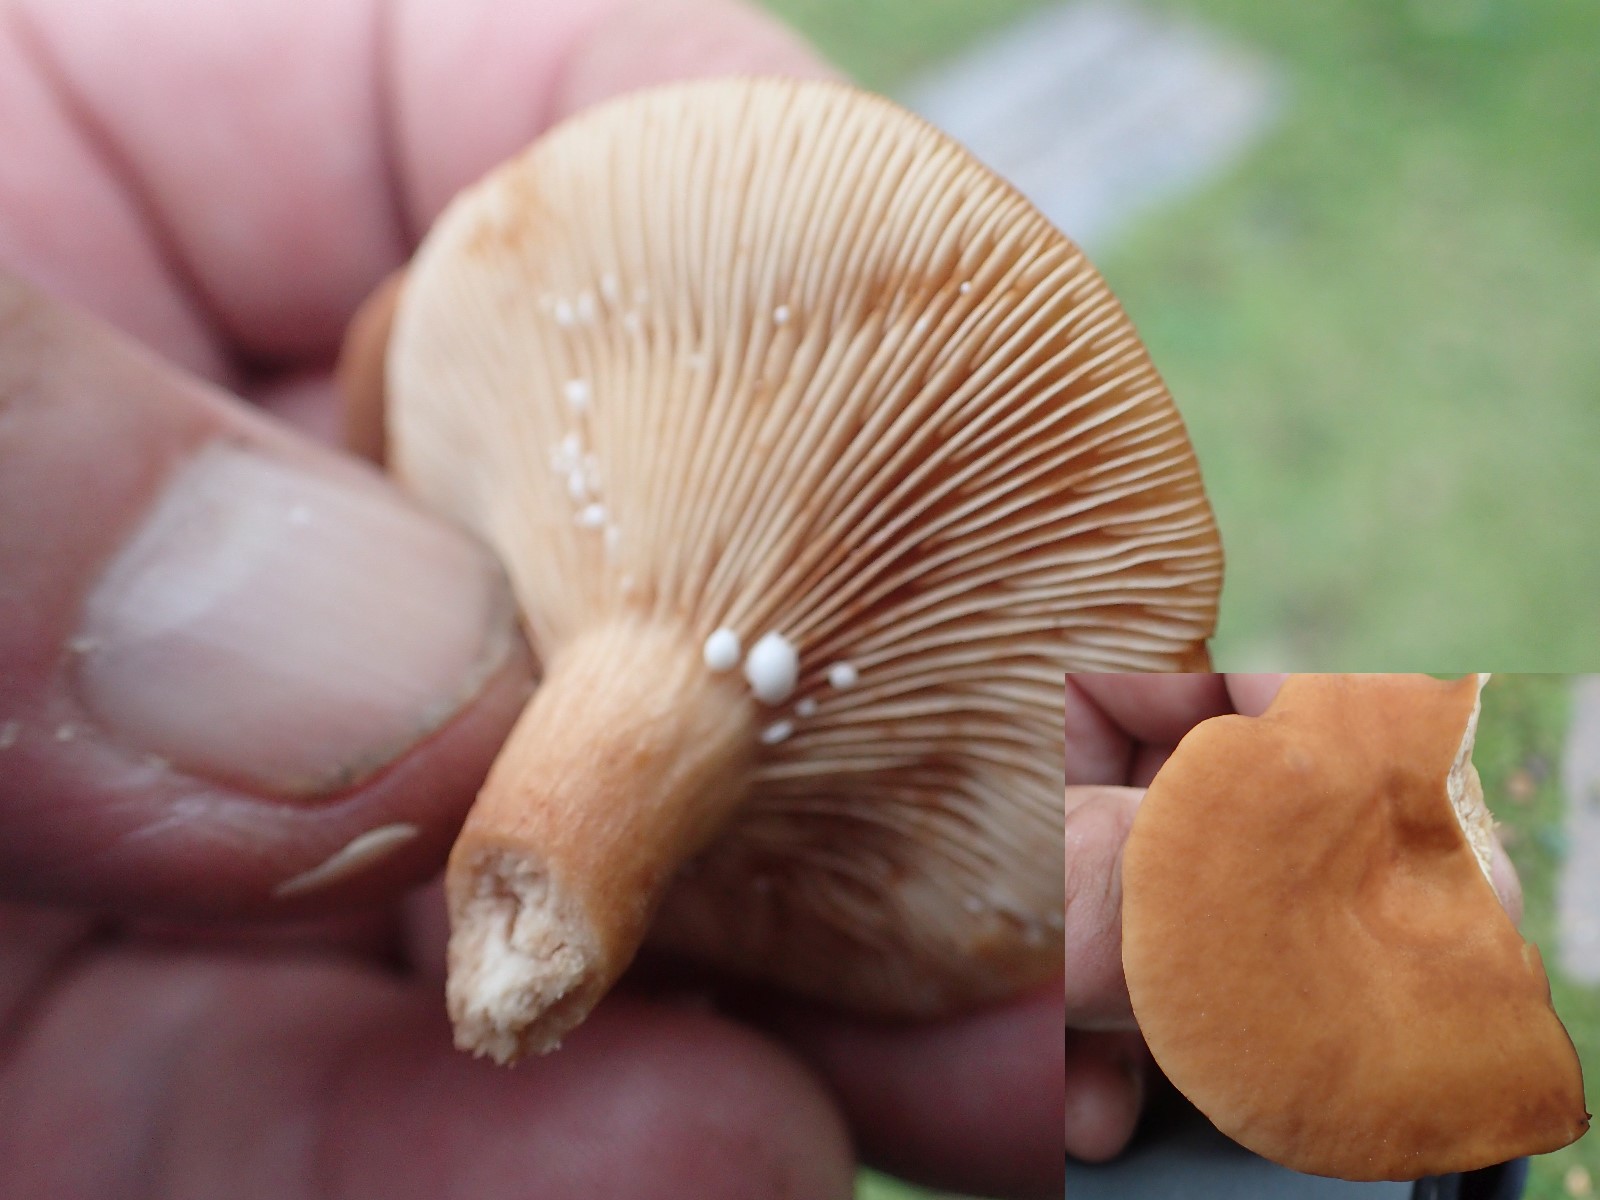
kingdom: Fungi
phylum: Basidiomycota
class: Agaricomycetes
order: Russulales
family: Russulaceae
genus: Lactarius
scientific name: Lactarius rufus
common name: rødbrun mælkehat
